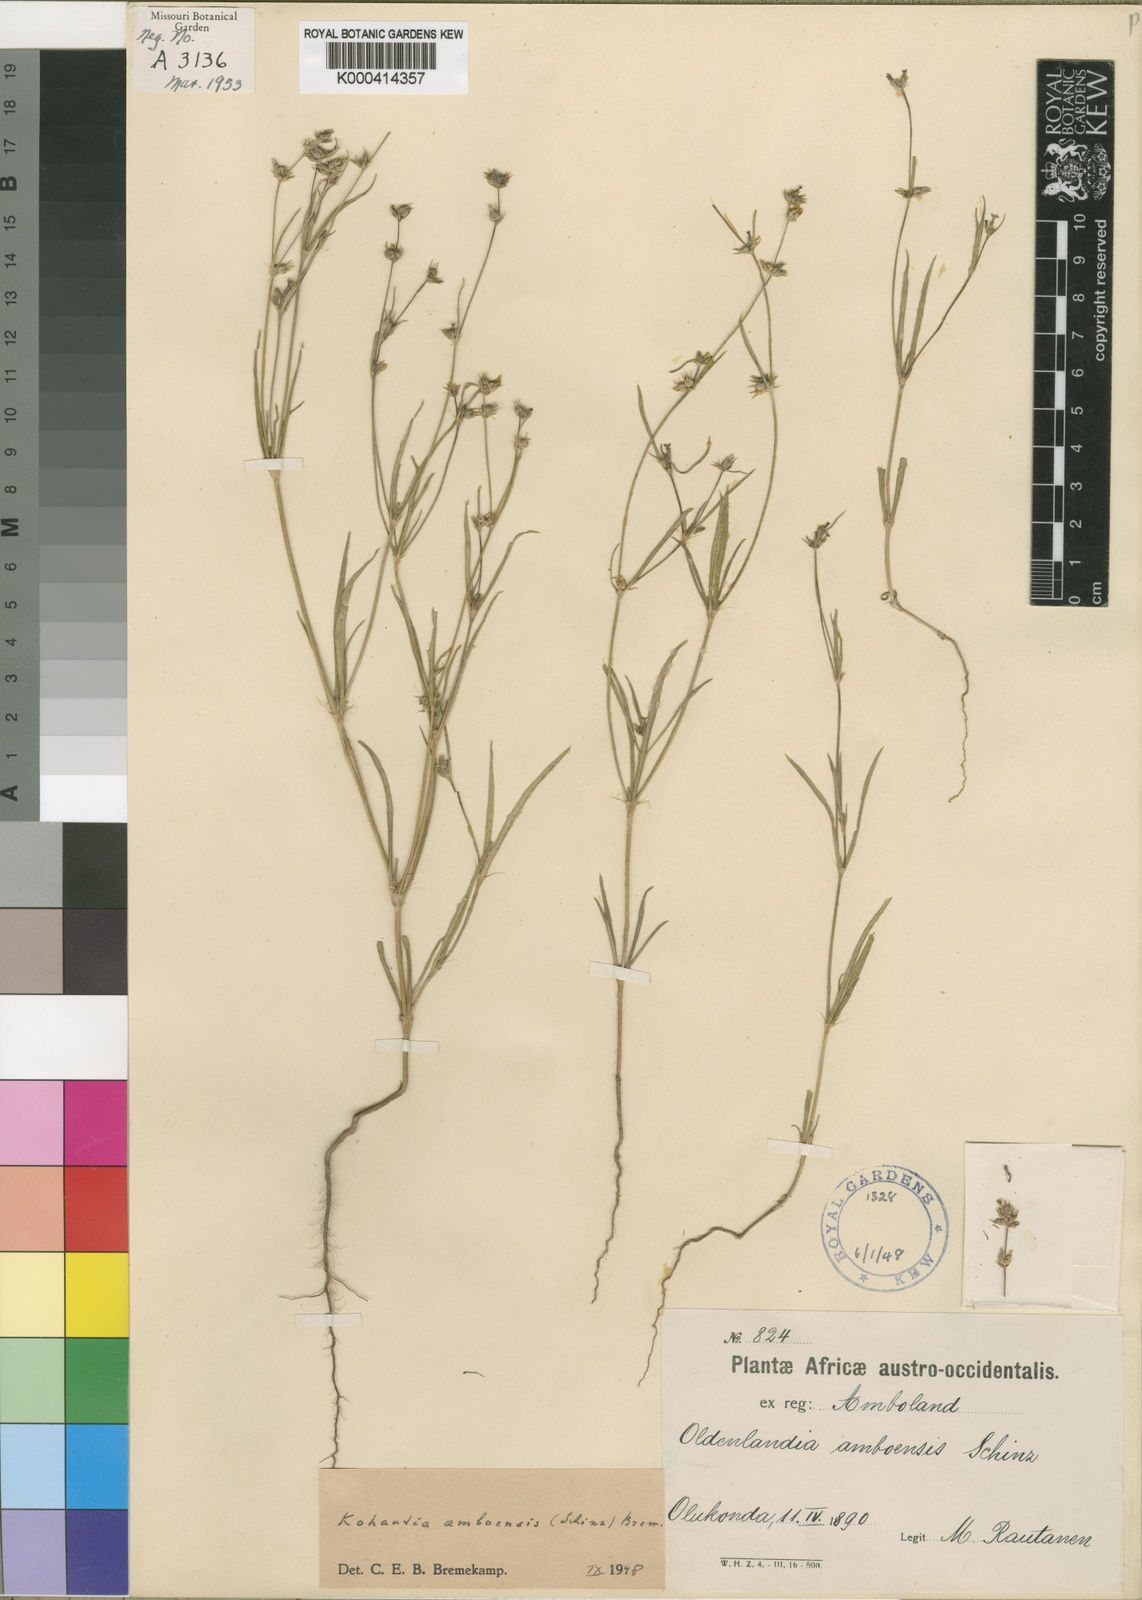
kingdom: Plantae
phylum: Tracheophyta
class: Magnoliopsida
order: Gentianales
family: Rubiaceae
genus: Cordylostigma
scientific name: Cordylostigma
